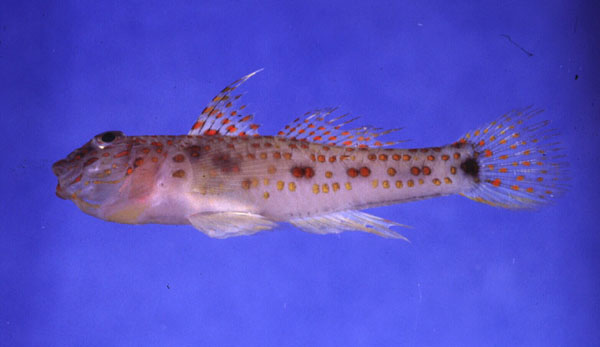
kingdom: Animalia
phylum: Chordata
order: Perciformes
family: Gobiidae
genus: Fusigobius
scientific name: Fusigobius longispinus
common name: Longspine goby
